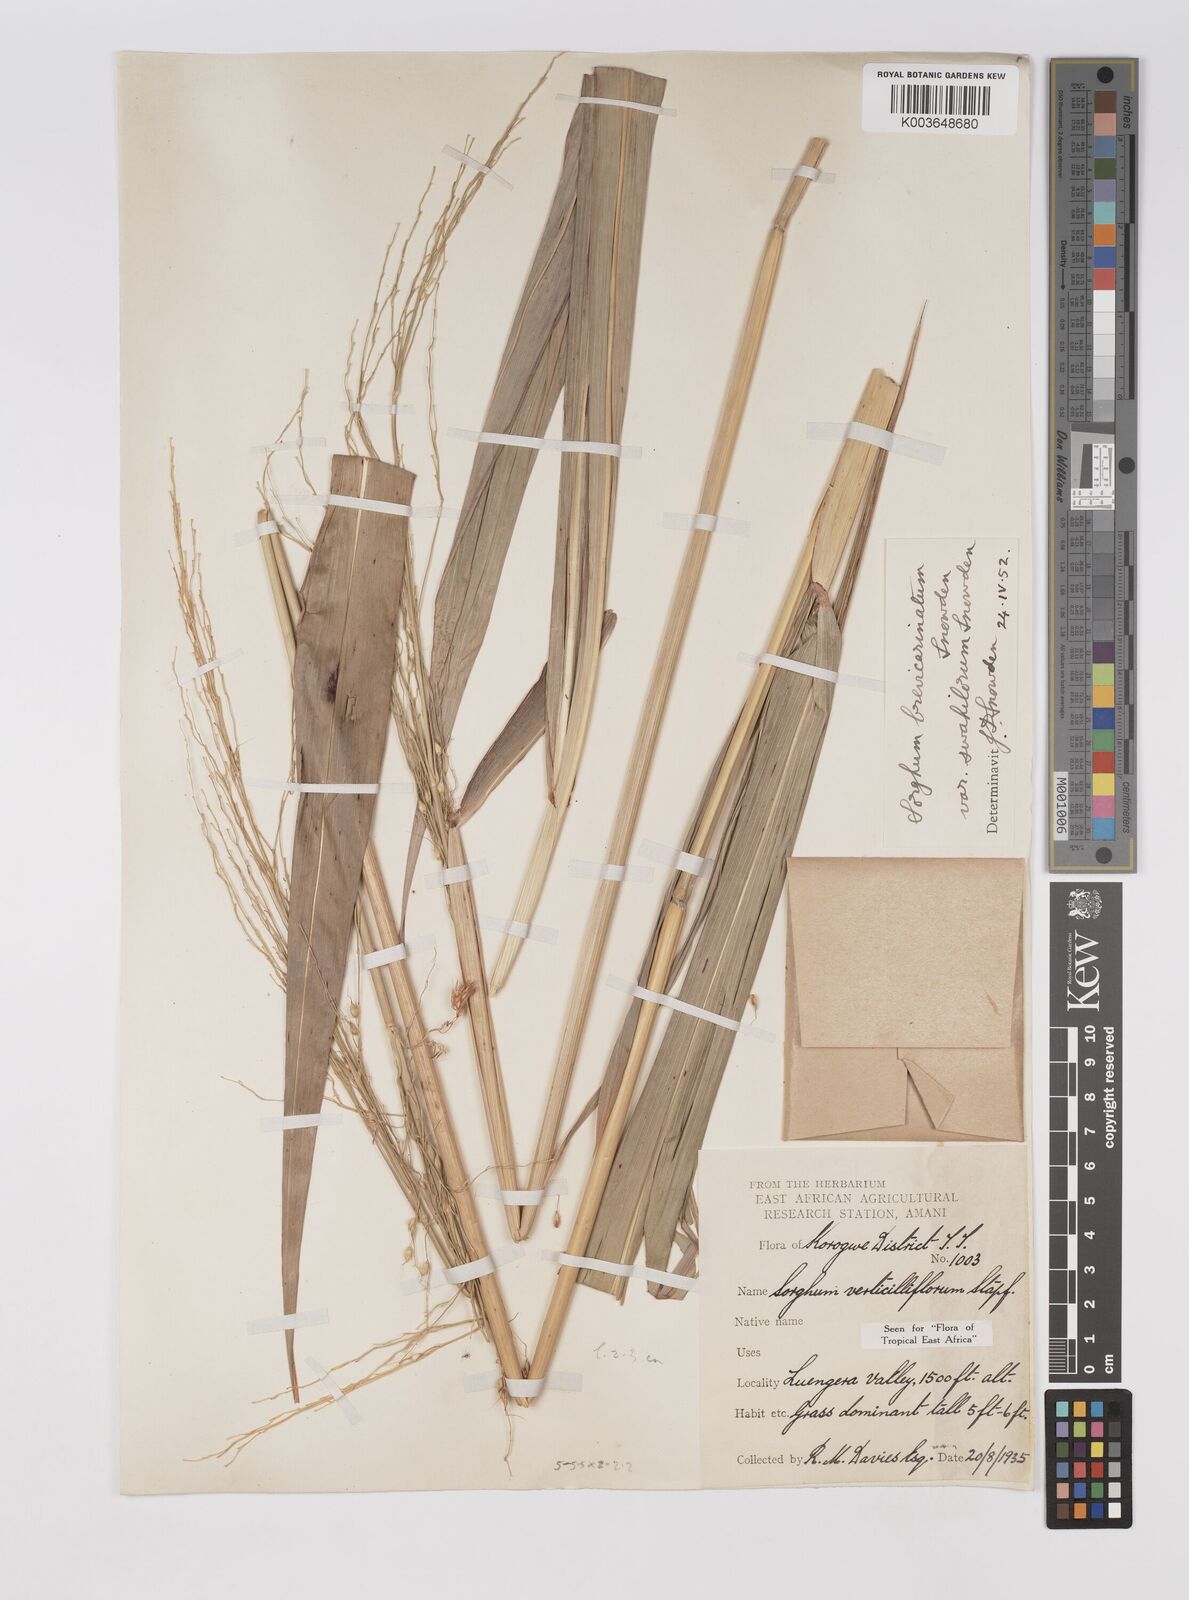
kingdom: Plantae
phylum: Tracheophyta
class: Liliopsida
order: Poales
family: Poaceae
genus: Sorghum
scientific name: Sorghum arundinaceum
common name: Sorghum
